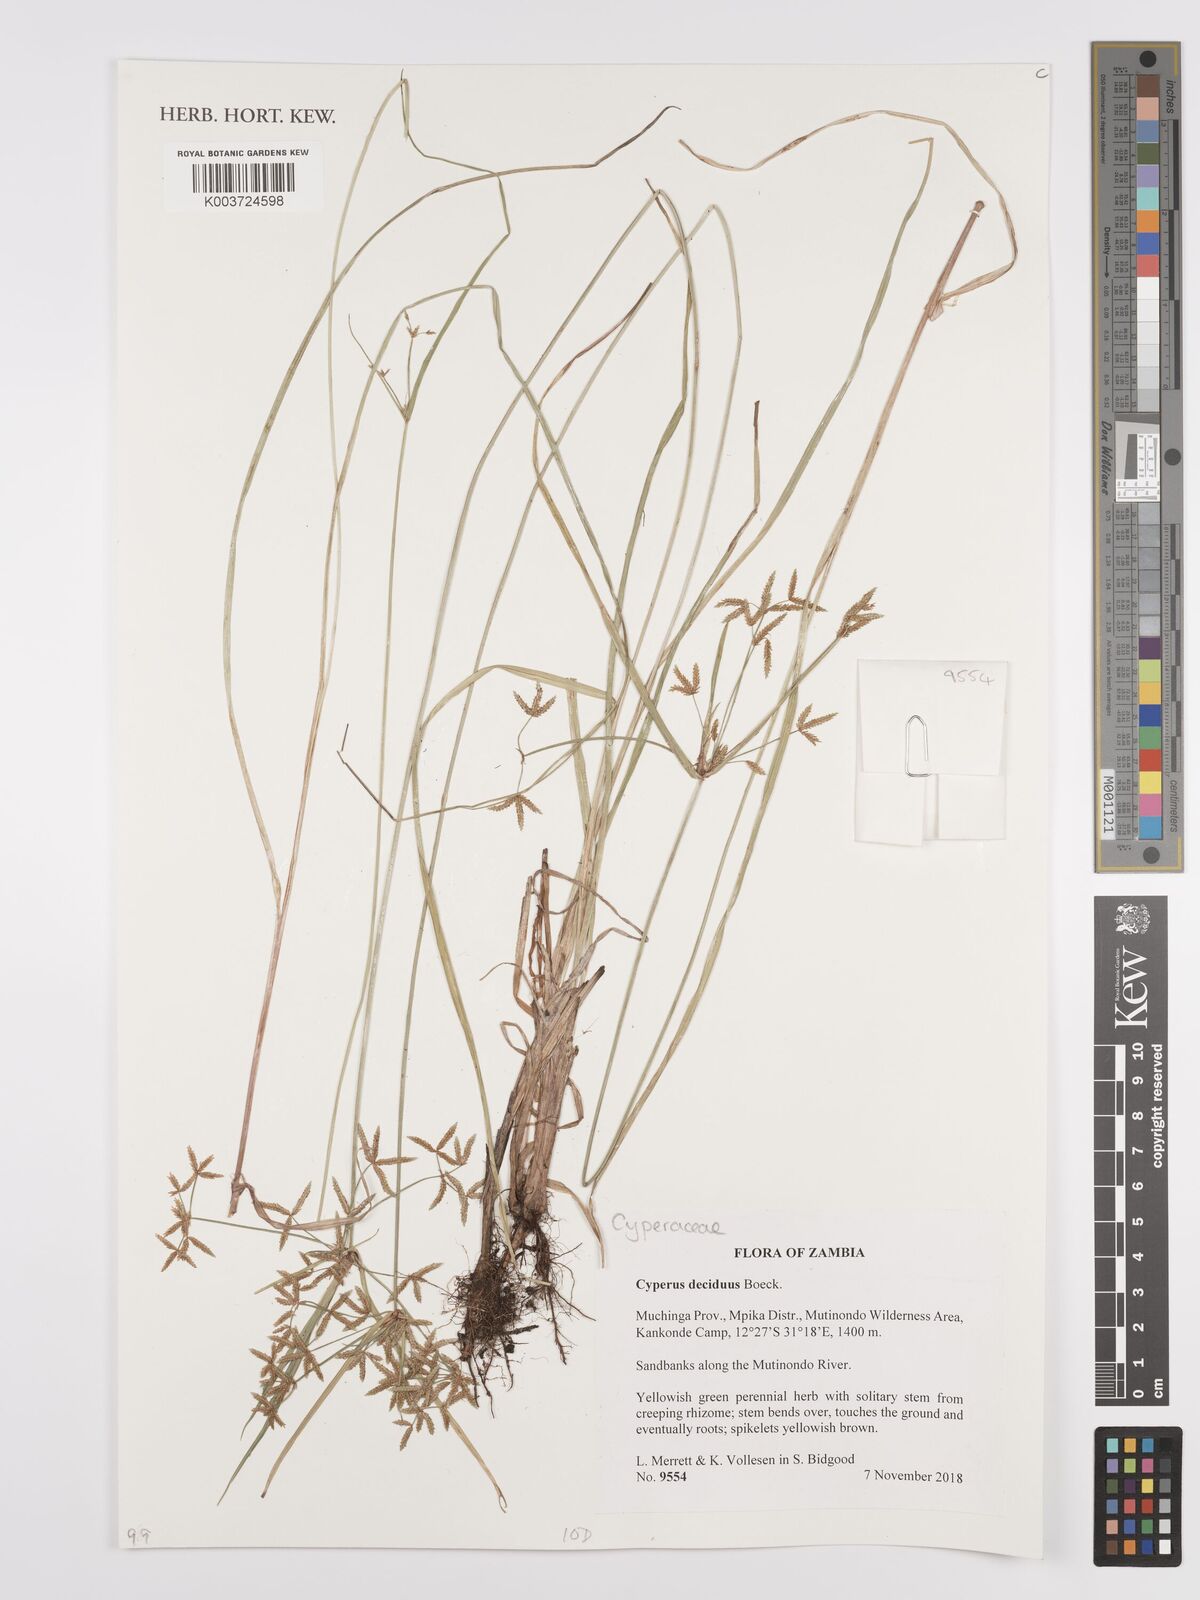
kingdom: Plantae
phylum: Tracheophyta
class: Liliopsida
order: Poales
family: Cyperaceae
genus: Cyperus
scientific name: Cyperus deciduus
